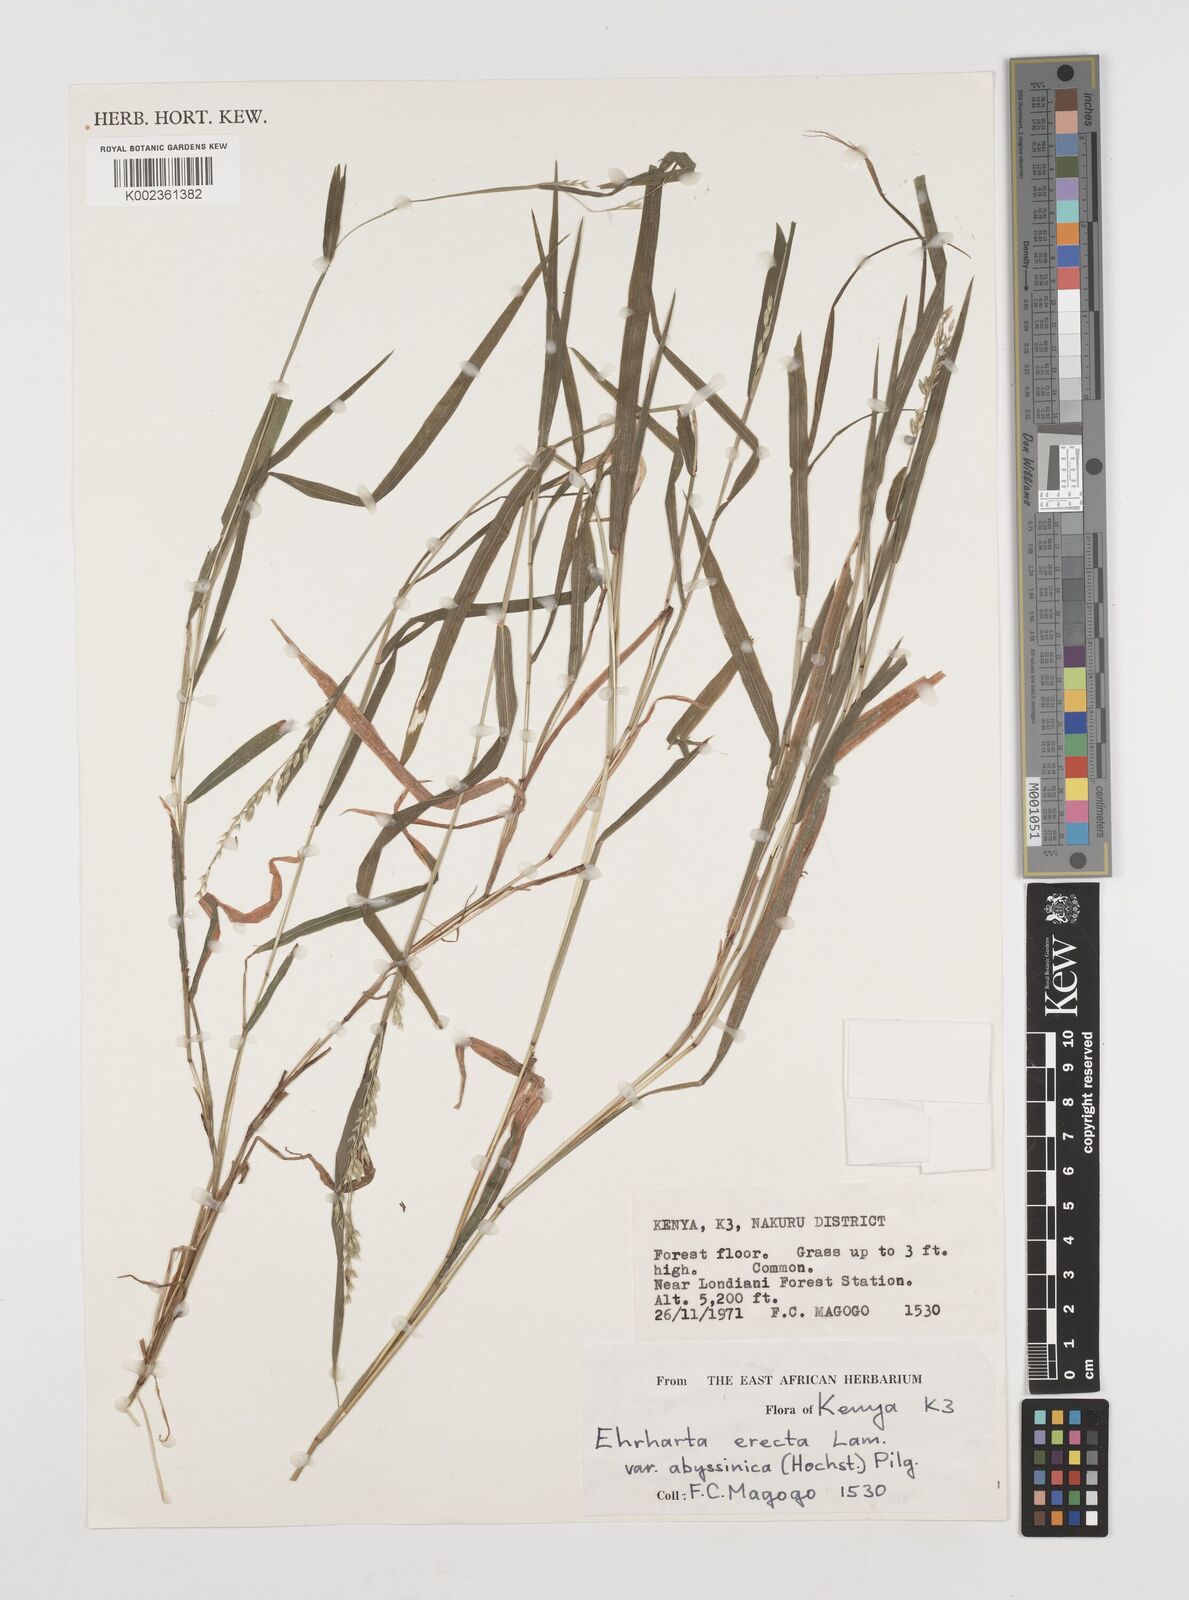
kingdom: Plantae
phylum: Tracheophyta
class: Liliopsida
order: Poales
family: Poaceae
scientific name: Poaceae
